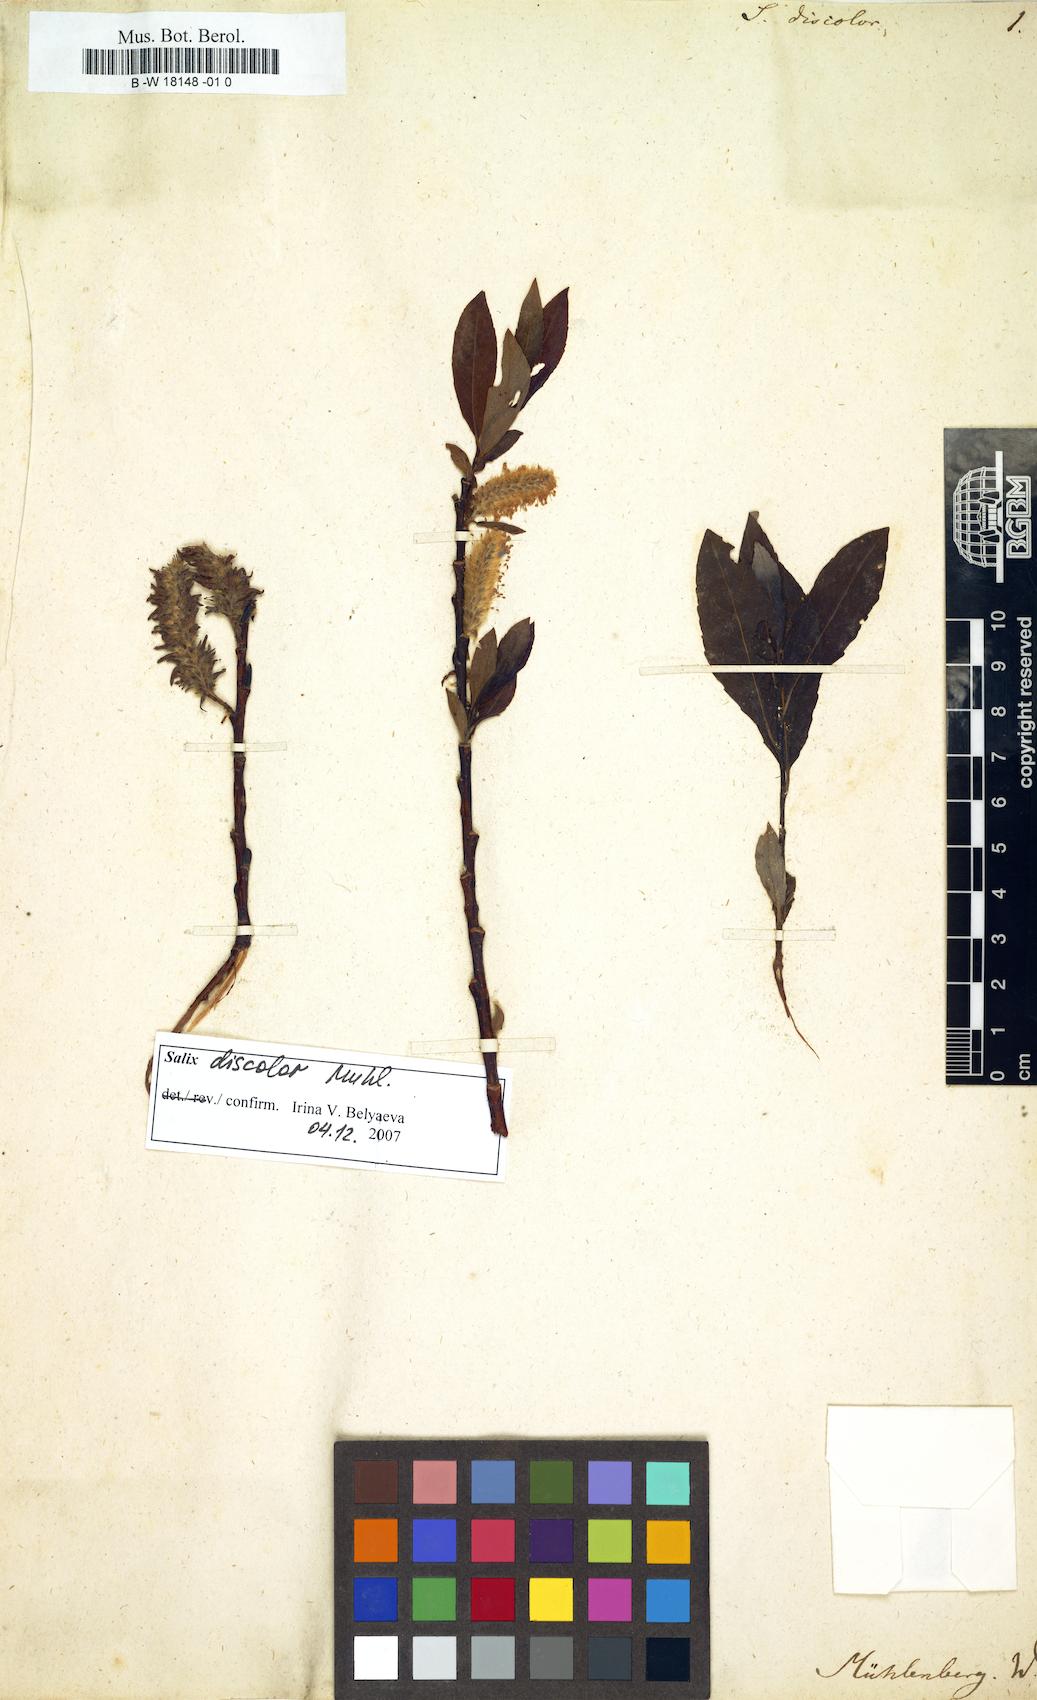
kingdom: Plantae
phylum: Tracheophyta
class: Magnoliopsida
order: Malpighiales
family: Salicaceae
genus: Salix
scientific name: Salix discolor
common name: Glaucous willow
